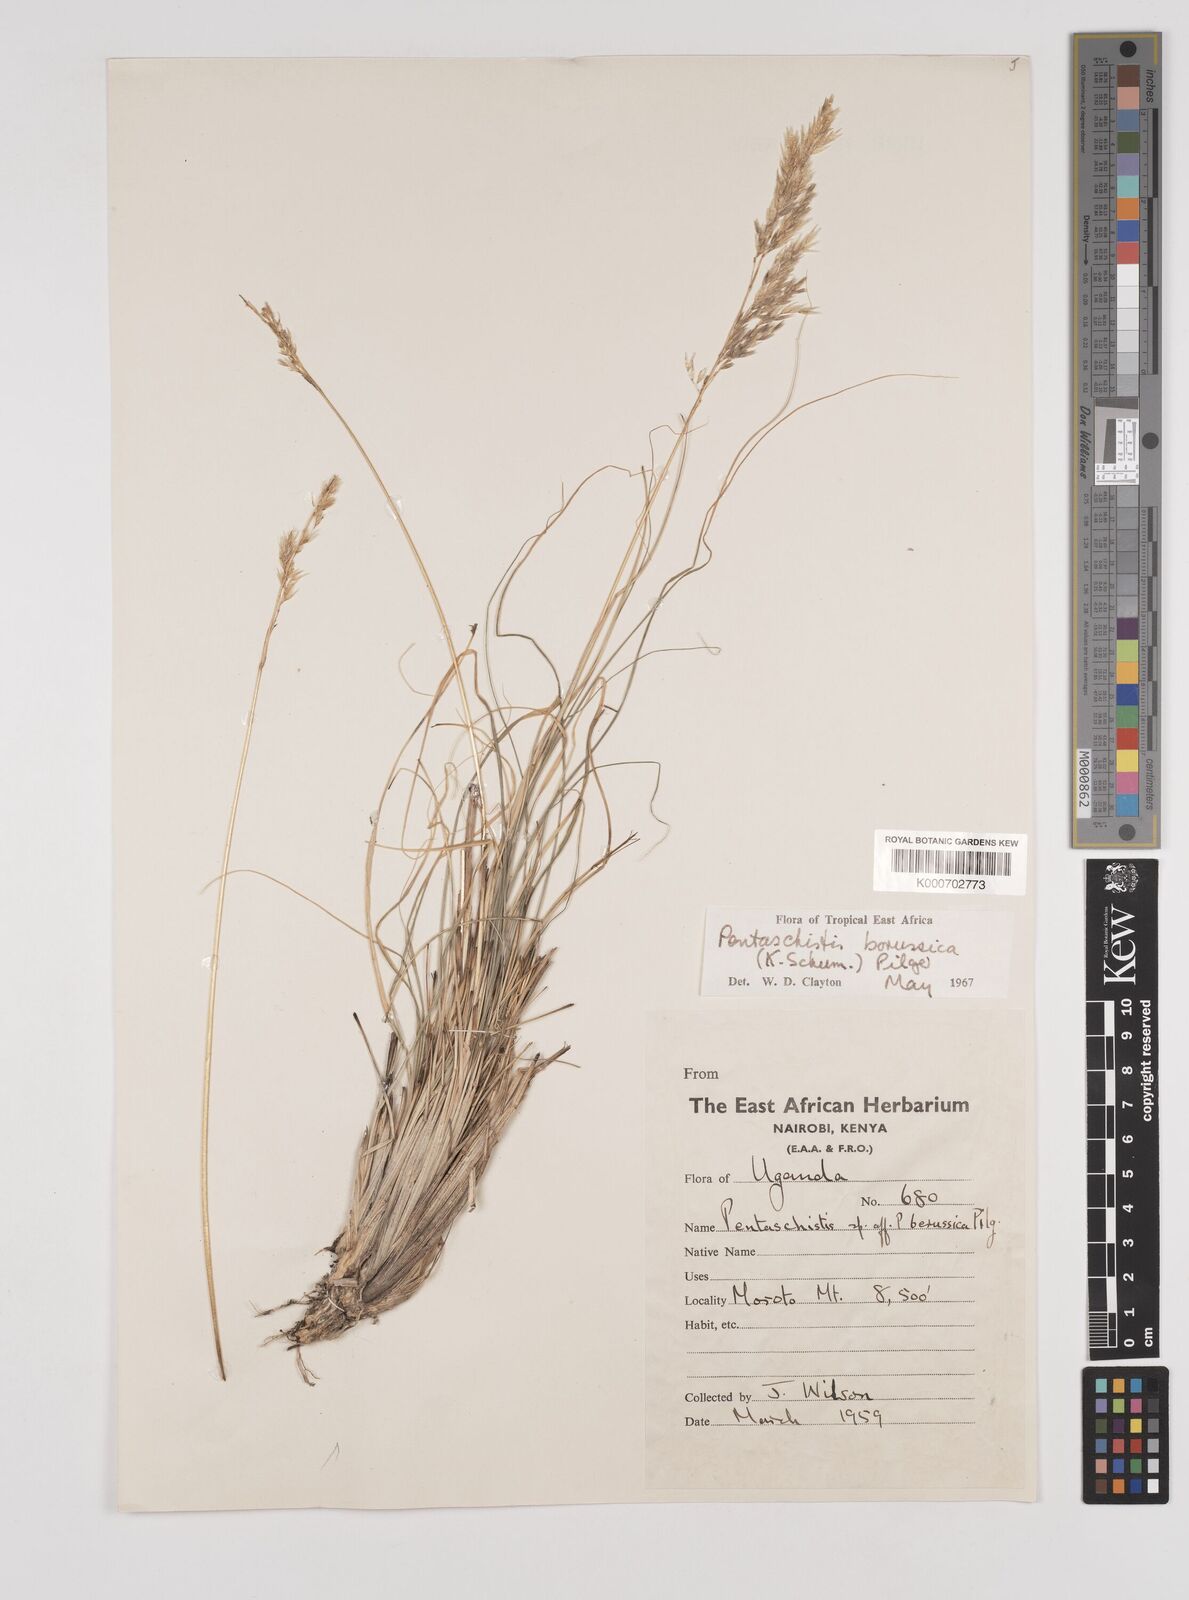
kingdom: Plantae
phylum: Tracheophyta
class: Liliopsida
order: Poales
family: Poaceae
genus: Pentameris
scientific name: Pentameris borussica
